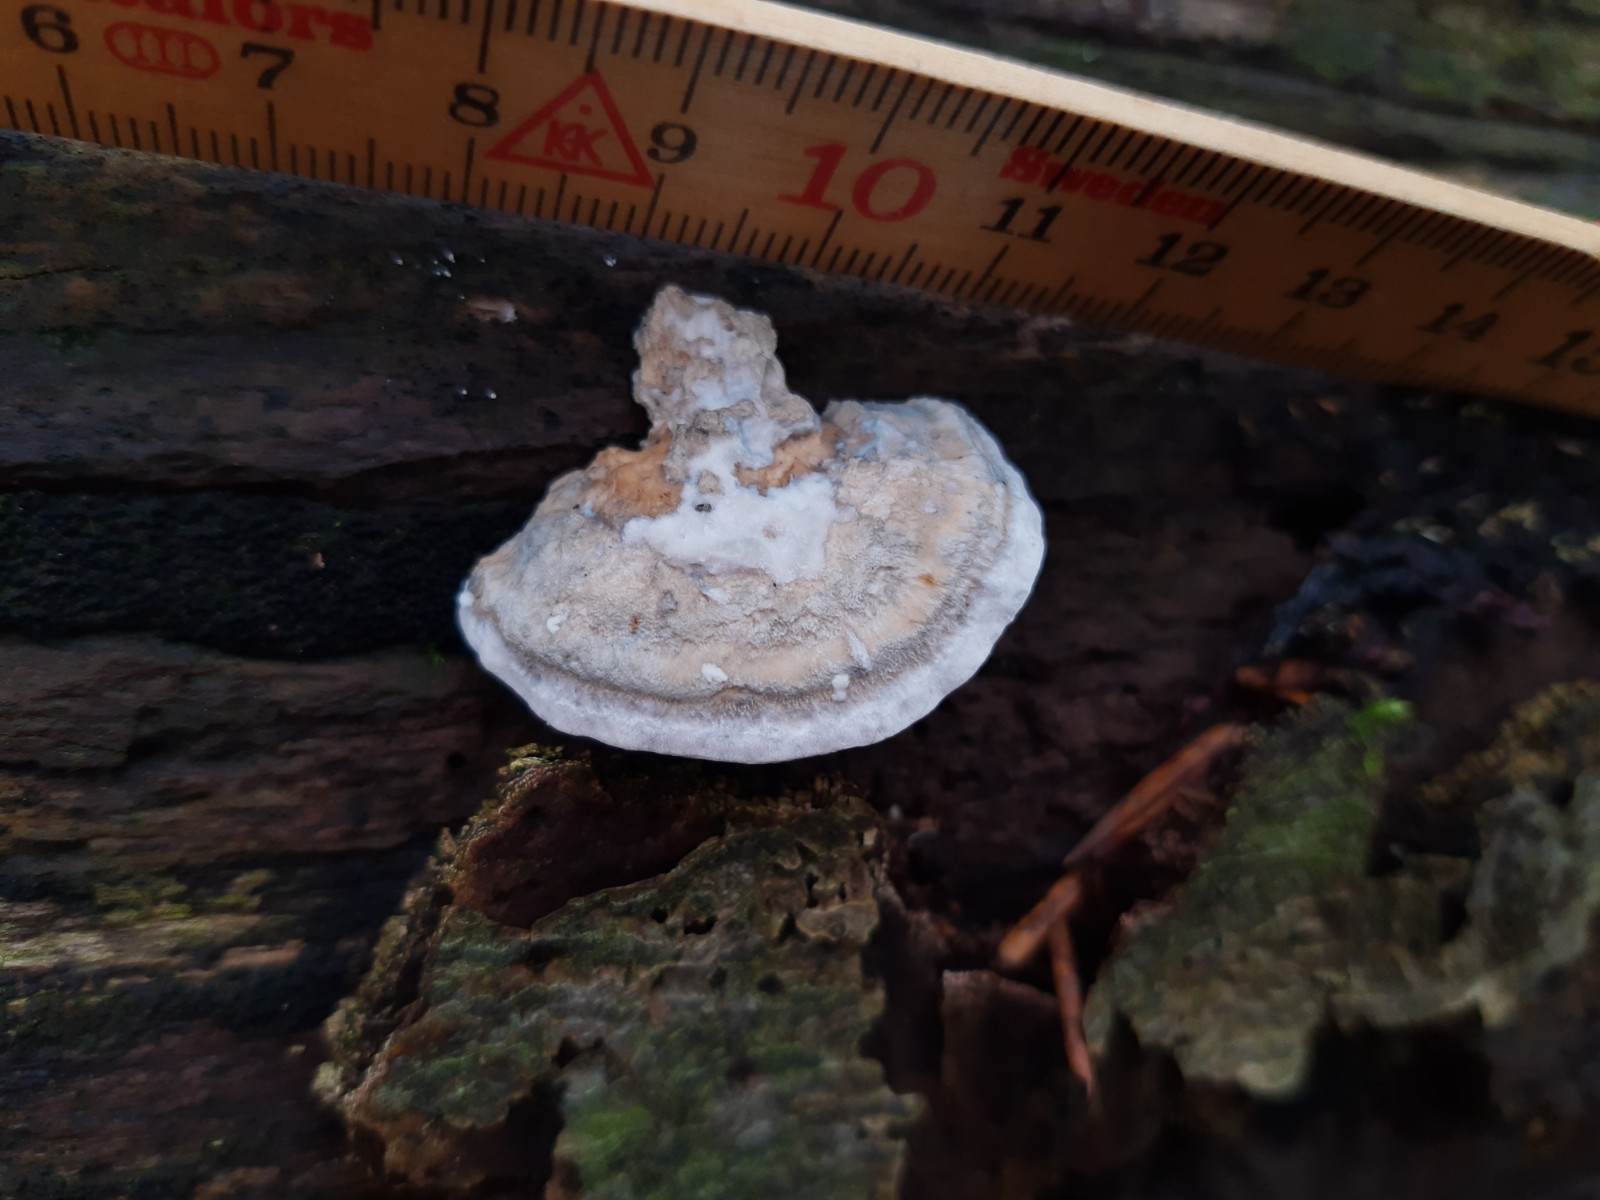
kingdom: Fungi
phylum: Basidiomycota
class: Agaricomycetes
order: Polyporales
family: Polyporaceae
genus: Cyanosporus
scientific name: Cyanosporus alni
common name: blegblå kødporesvamp
